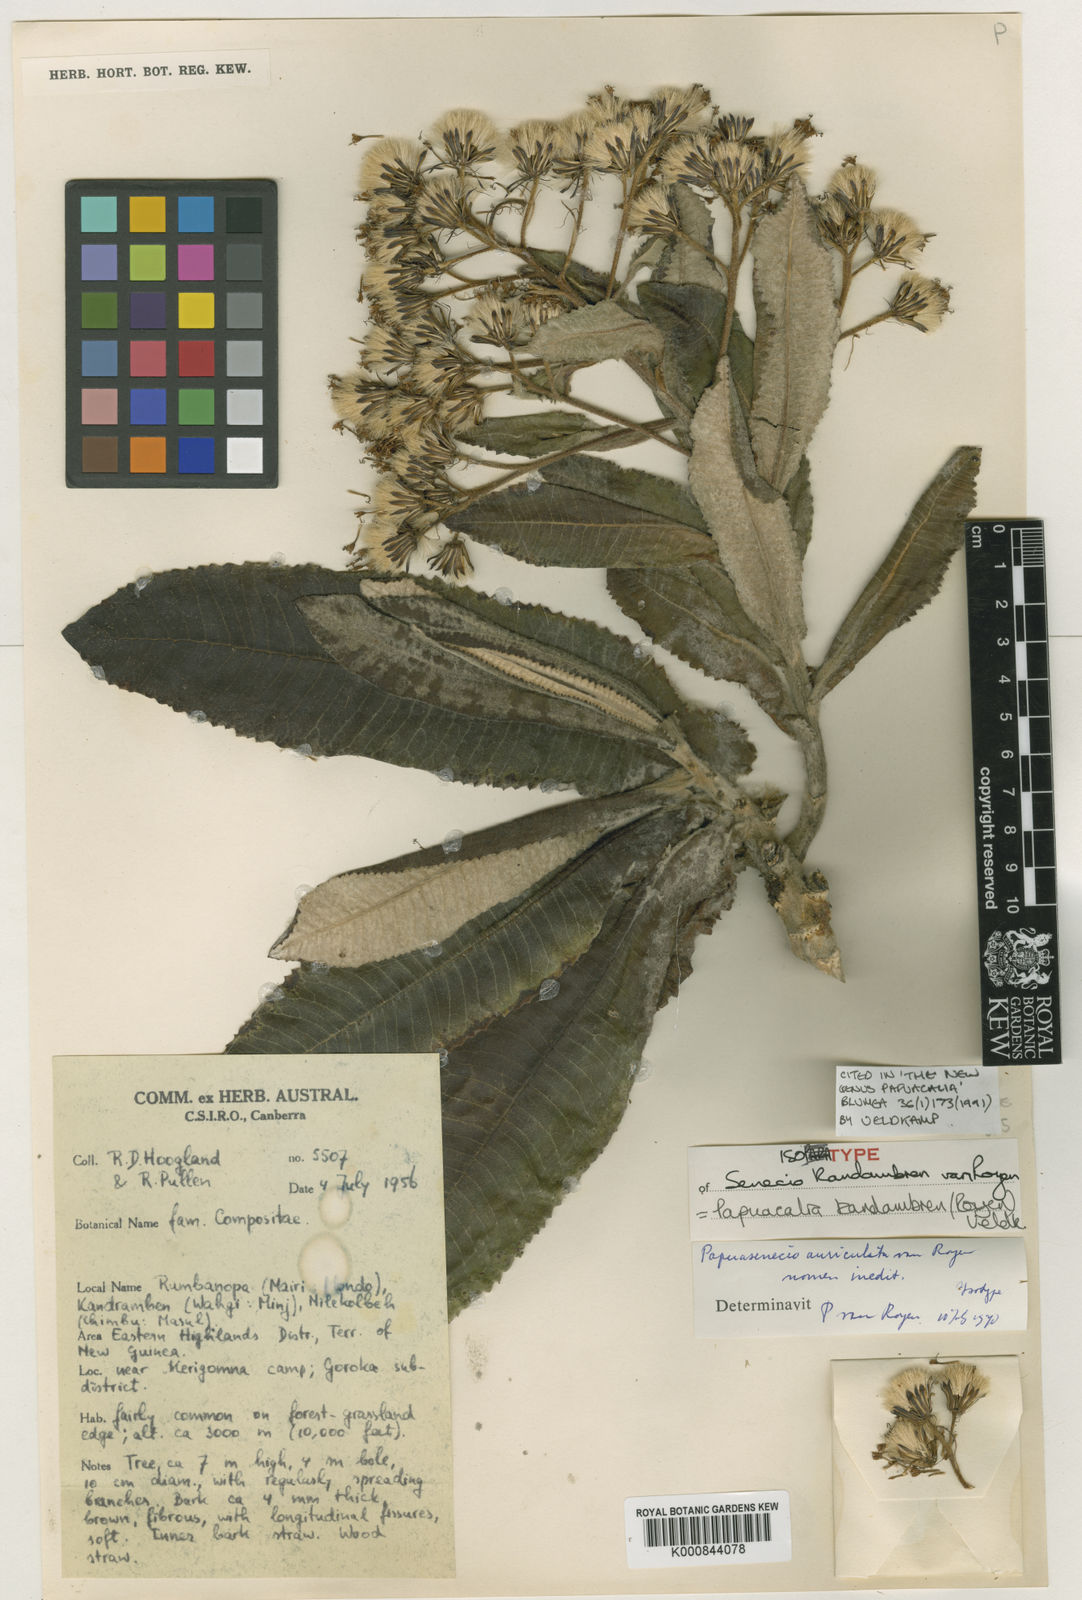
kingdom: Plantae
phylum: Tracheophyta
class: Magnoliopsida
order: Asterales
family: Asteraceae
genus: Papuacalia
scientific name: Papuacalia kandambren
